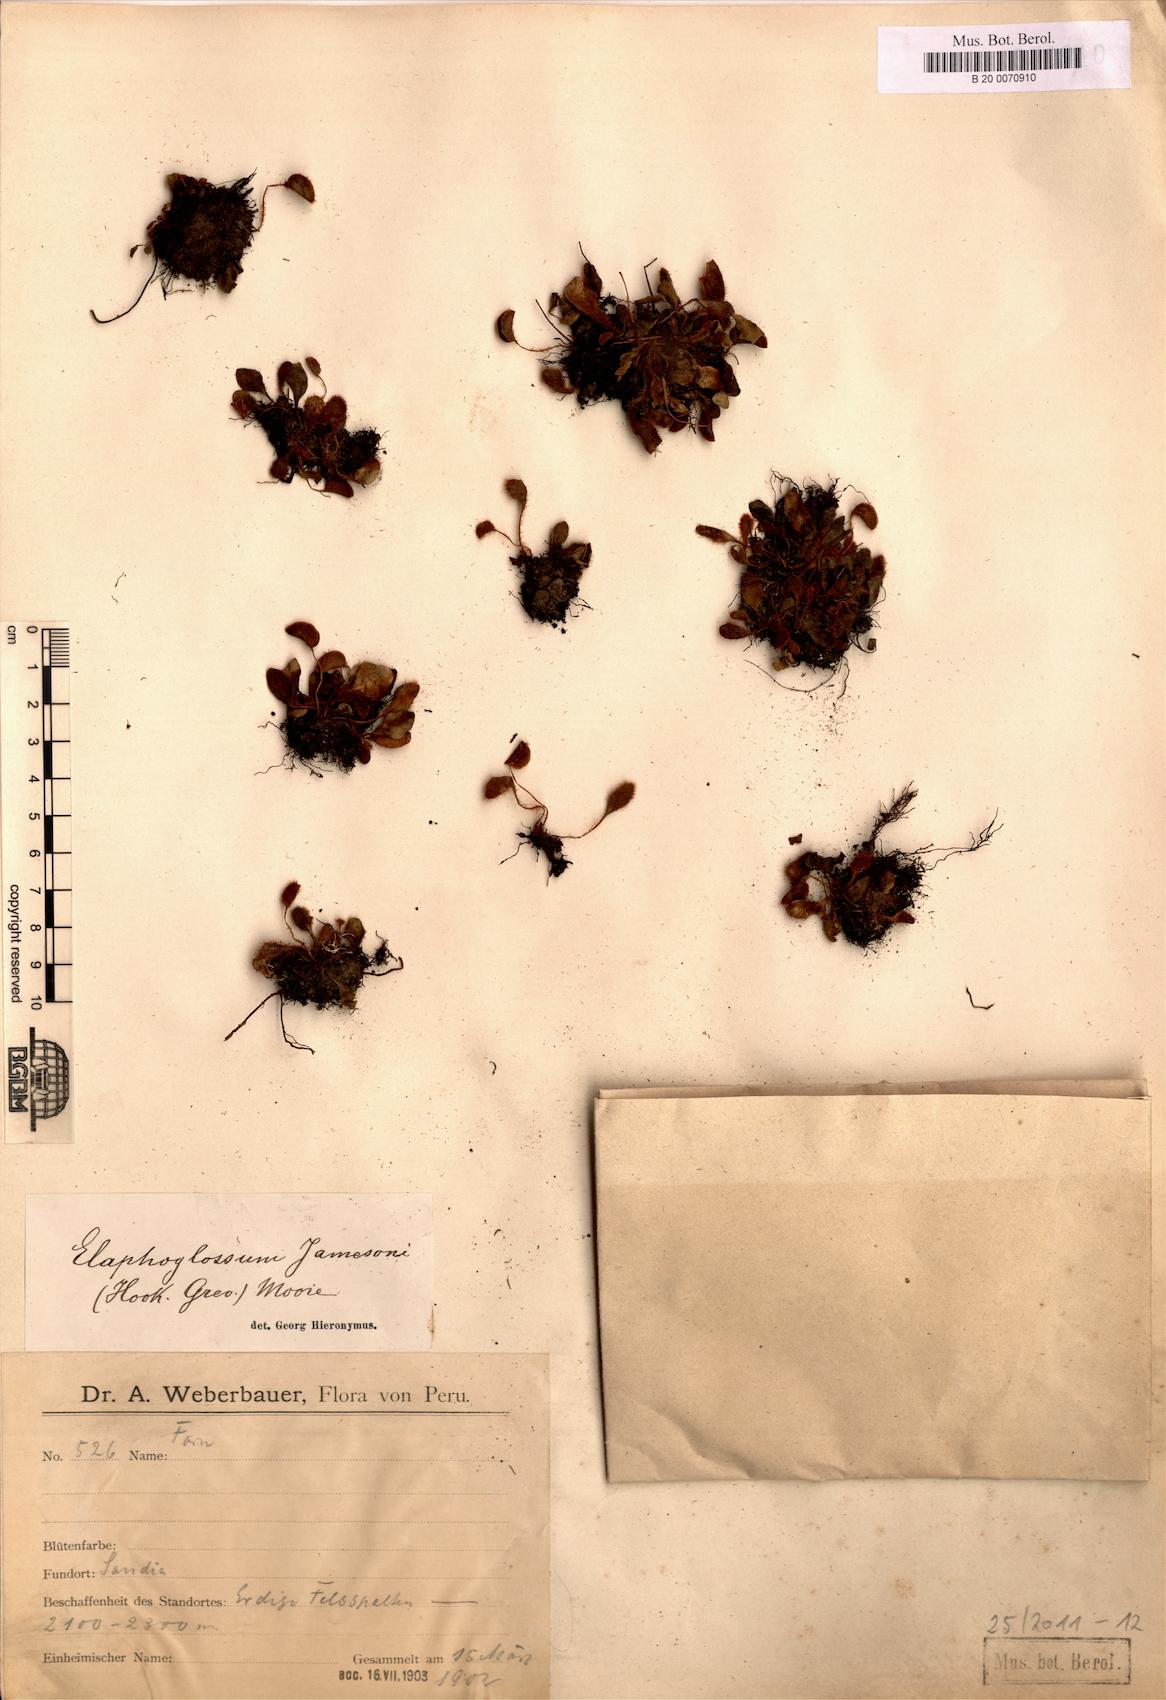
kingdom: Plantae
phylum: Tracheophyta
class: Polypodiopsida
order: Polypodiales
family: Dryopteridaceae
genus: Elaphoglossum
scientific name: Elaphoglossum piloselloides
